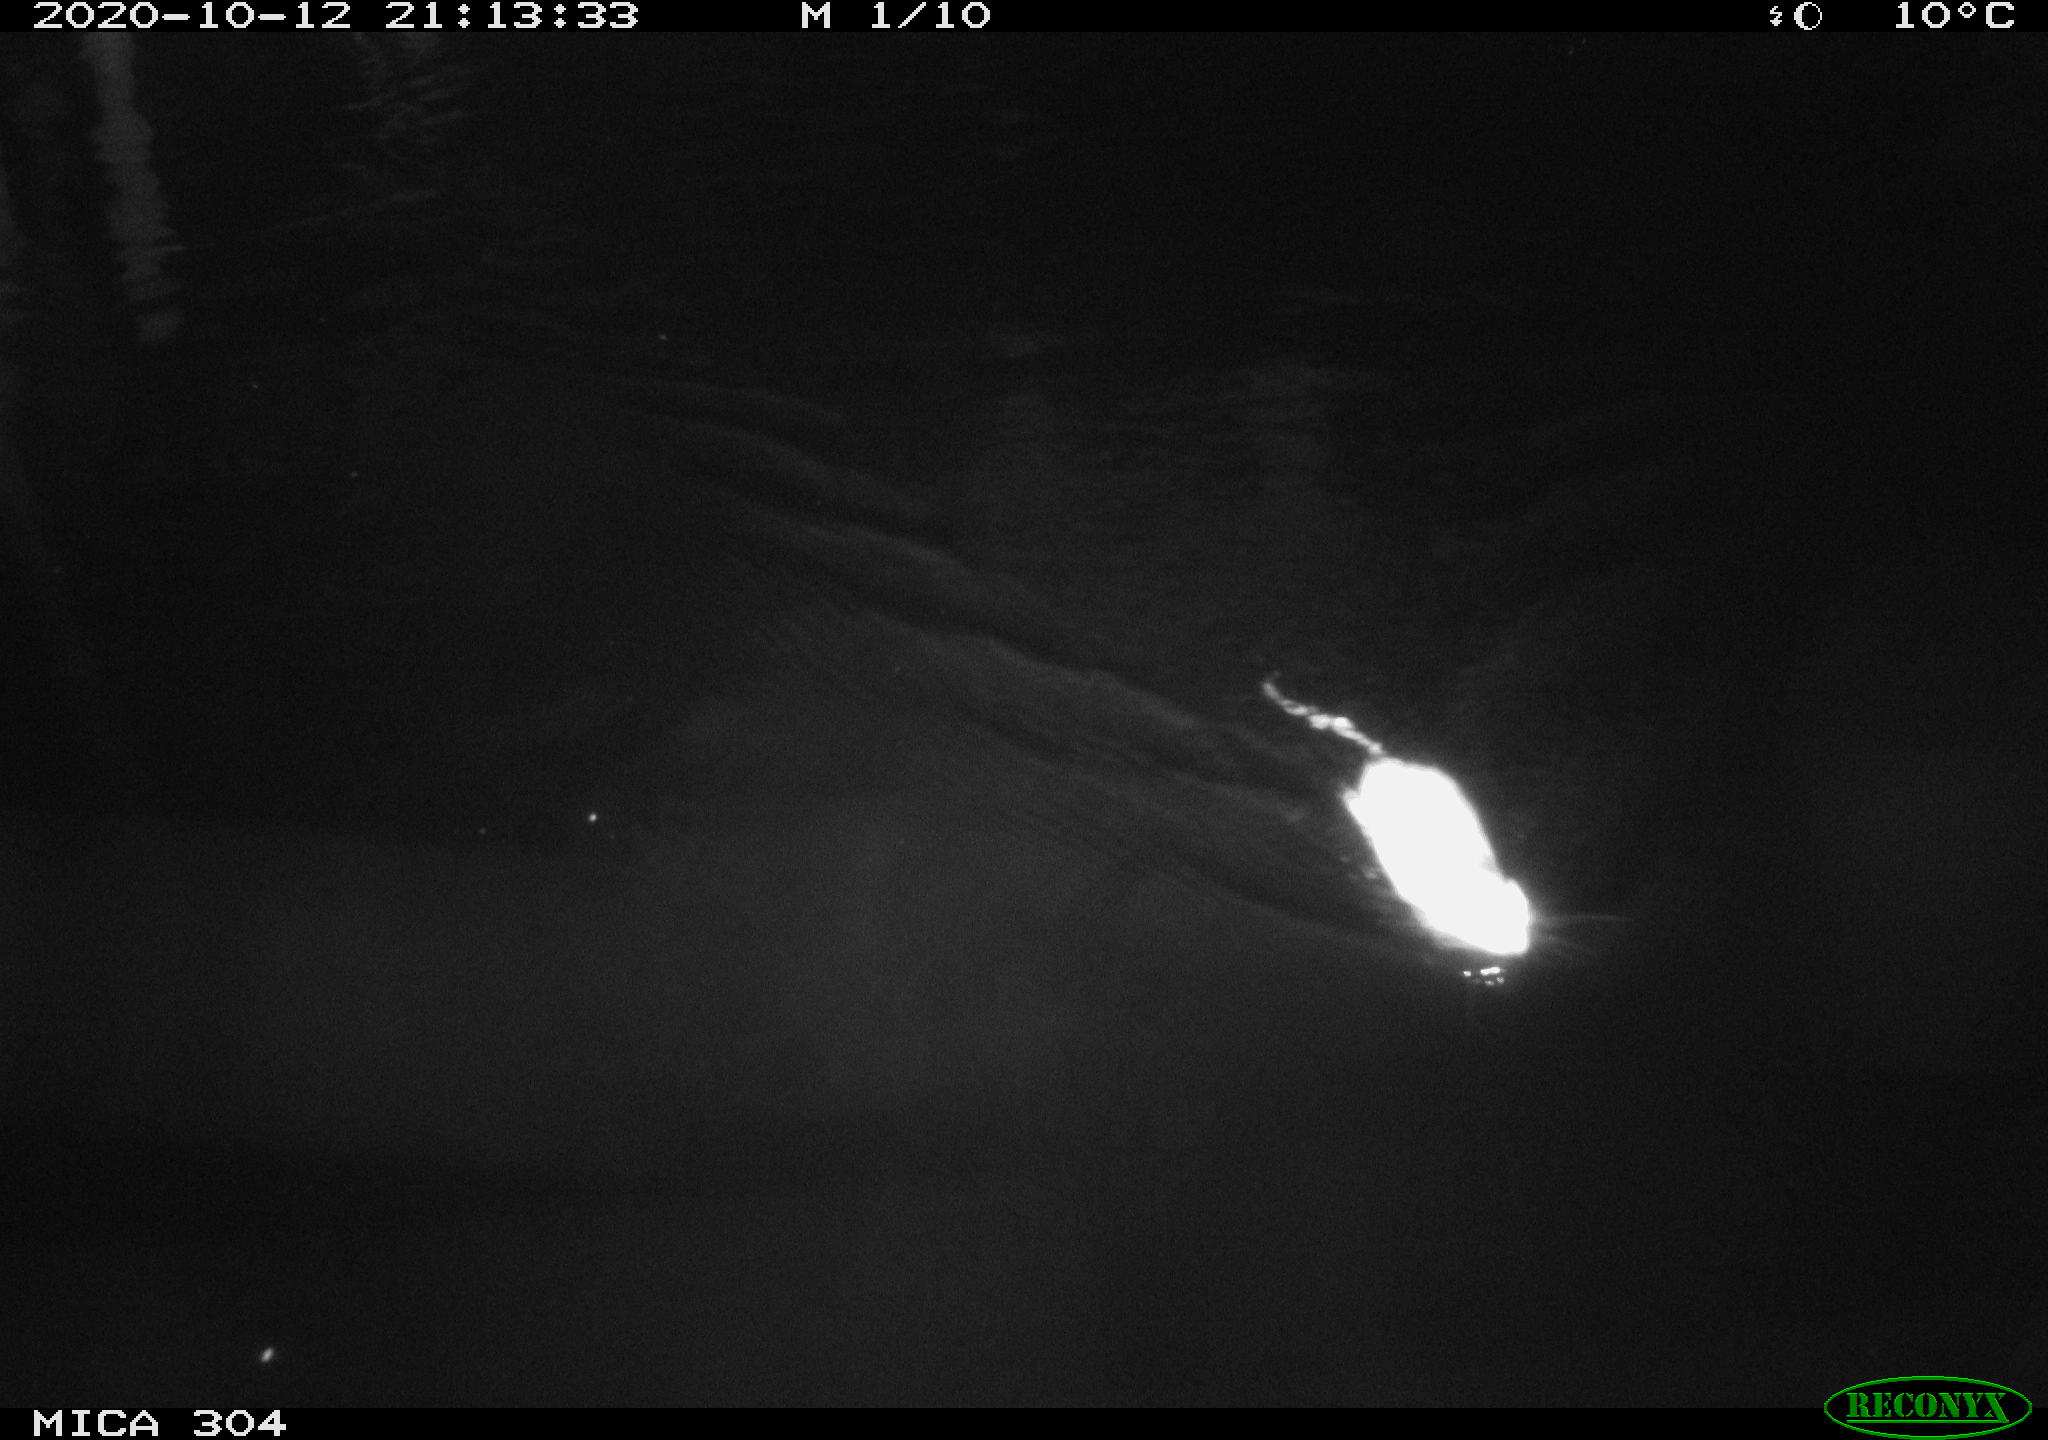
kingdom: Animalia
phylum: Chordata
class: Mammalia
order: Rodentia
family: Cricetidae
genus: Ondatra
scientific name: Ondatra zibethicus
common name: Muskrat
